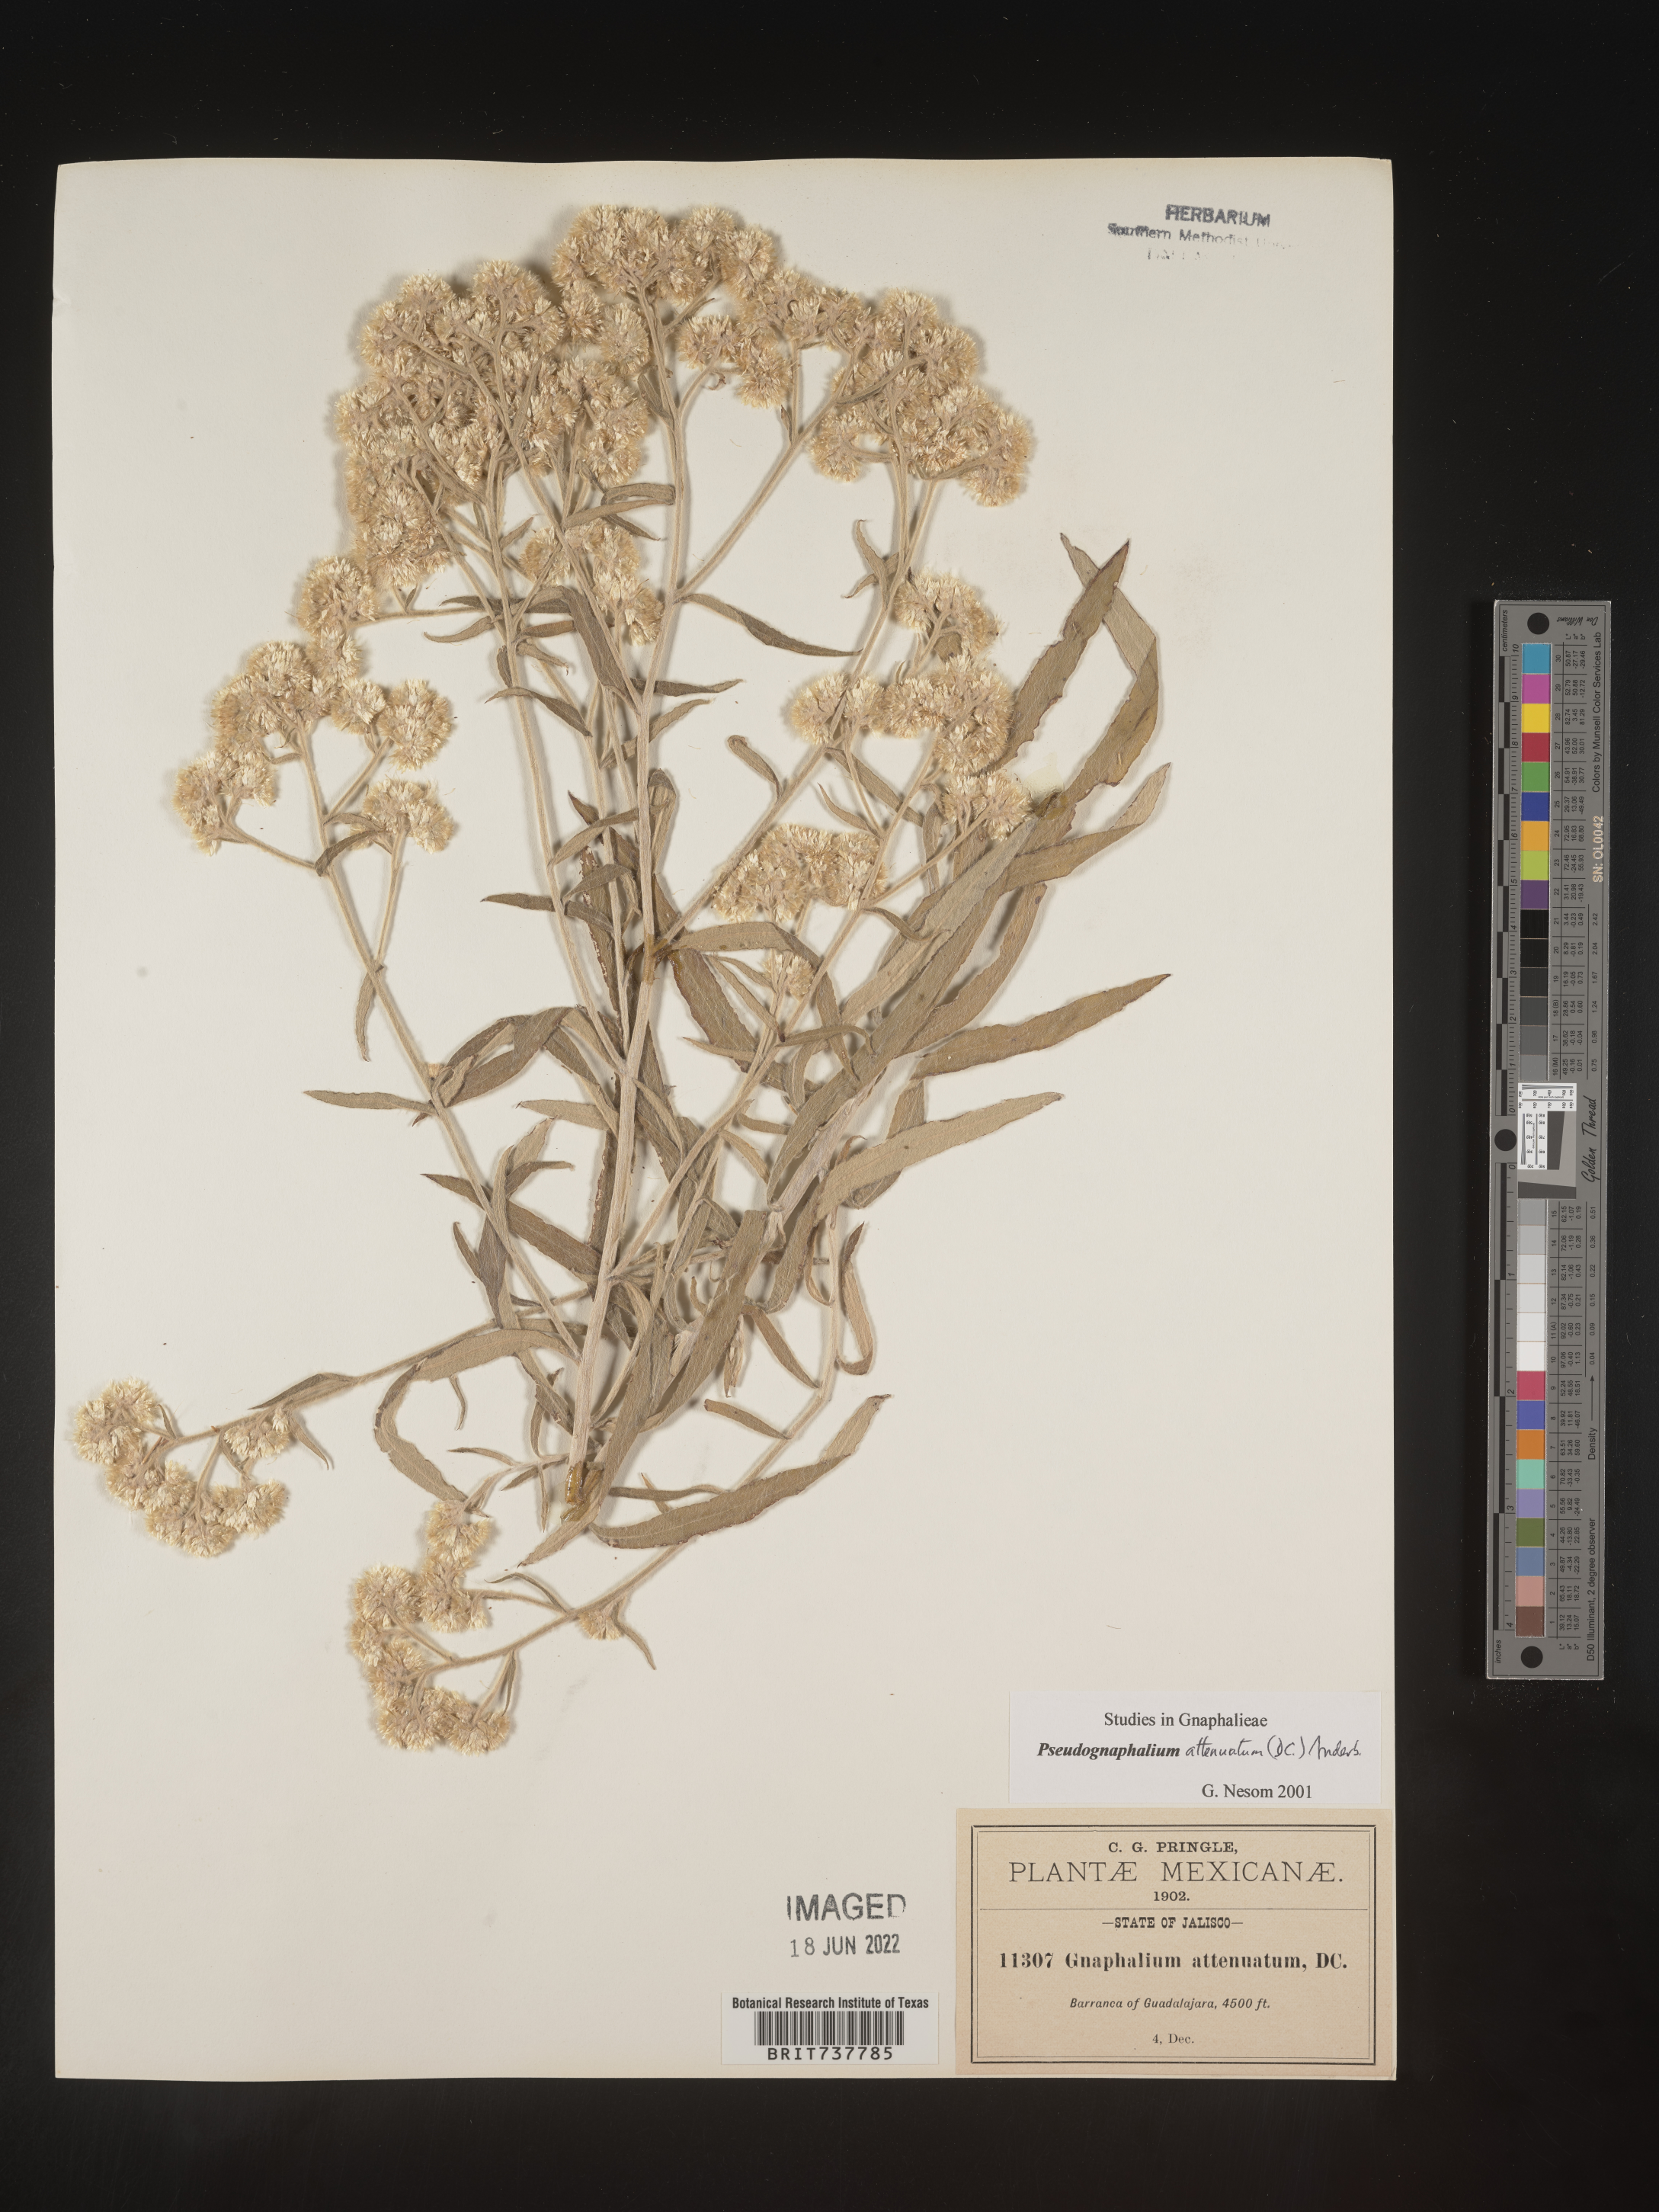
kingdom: Plantae
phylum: Tracheophyta
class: Magnoliopsida
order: Asterales
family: Asteraceae
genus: Pseudognaphalium
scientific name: Pseudognaphalium attenuatum
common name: Tapered cudweed
